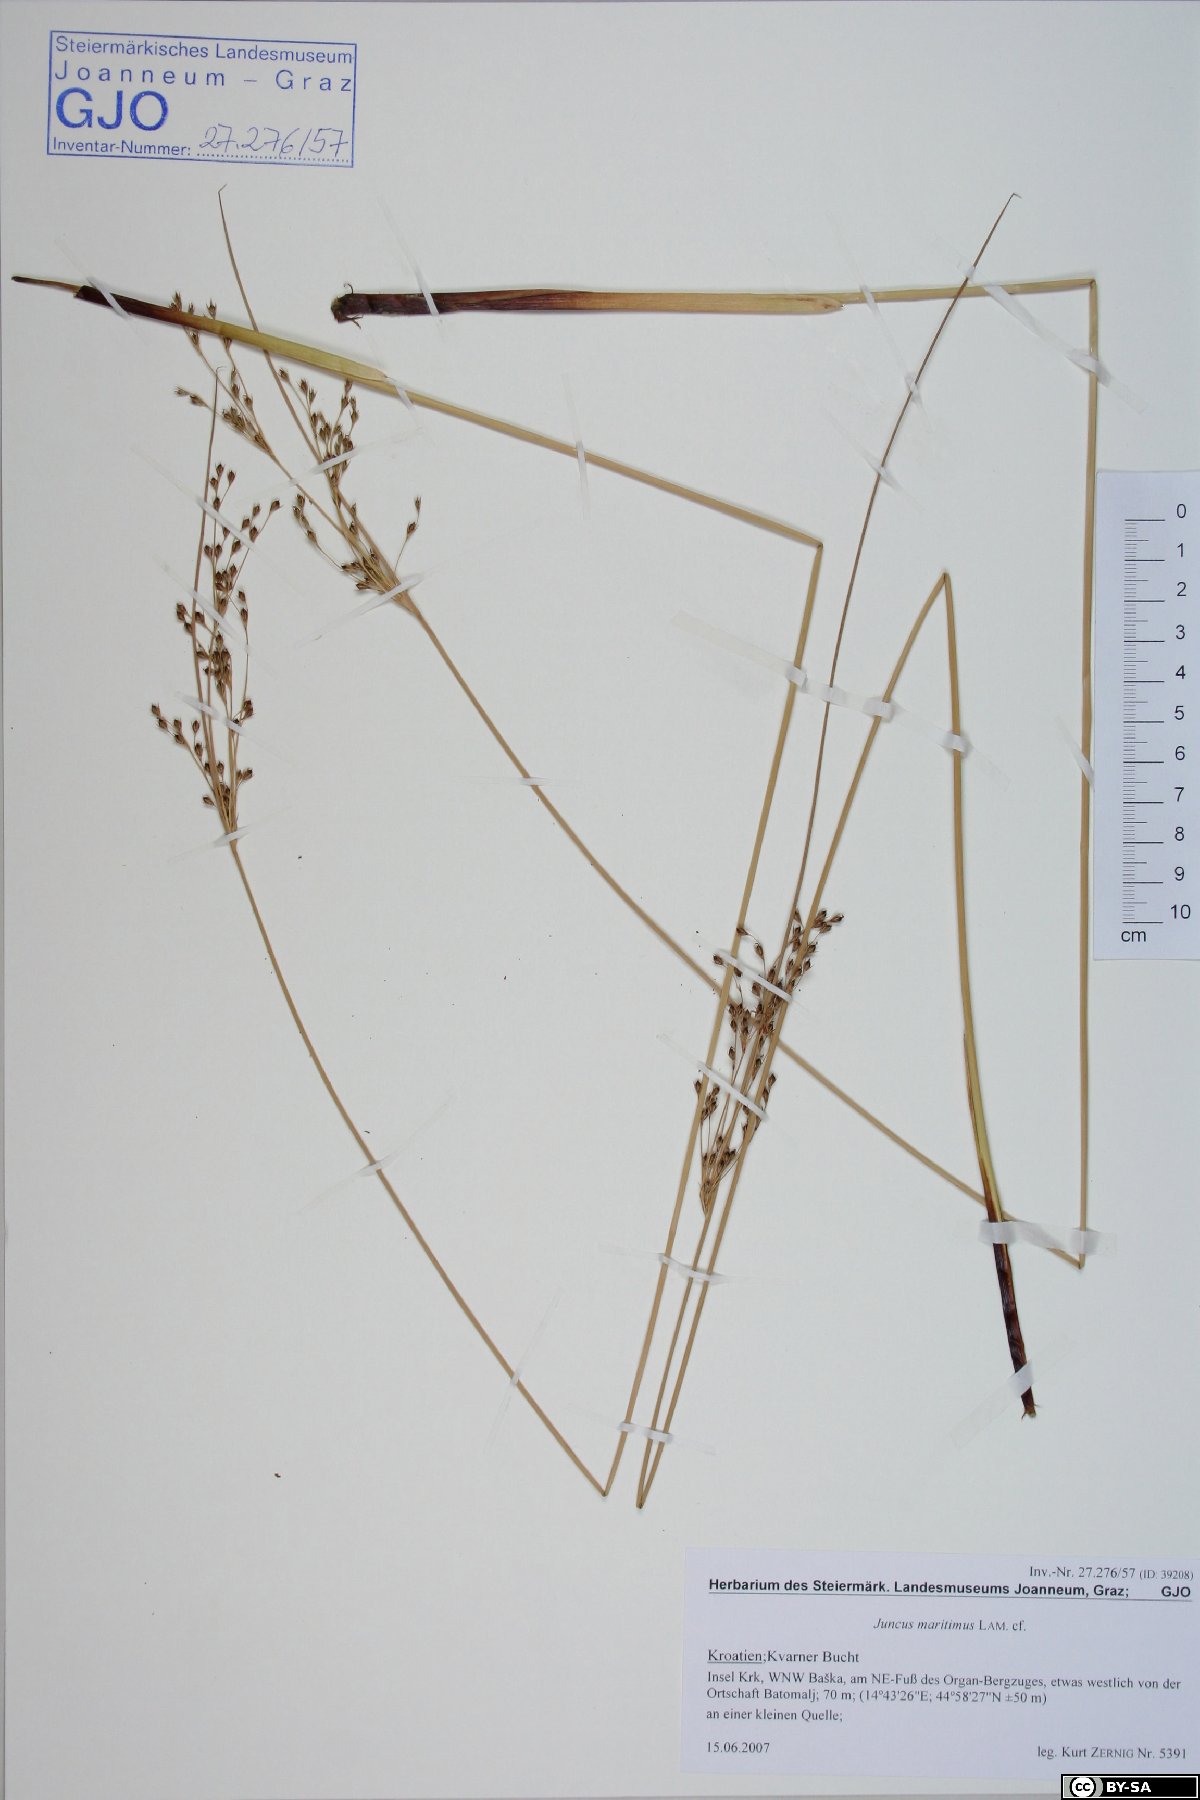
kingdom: Plantae
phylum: Tracheophyta
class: Liliopsida
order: Poales
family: Juncaceae
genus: Juncus
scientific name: Juncus maritimus
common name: Sea rush
